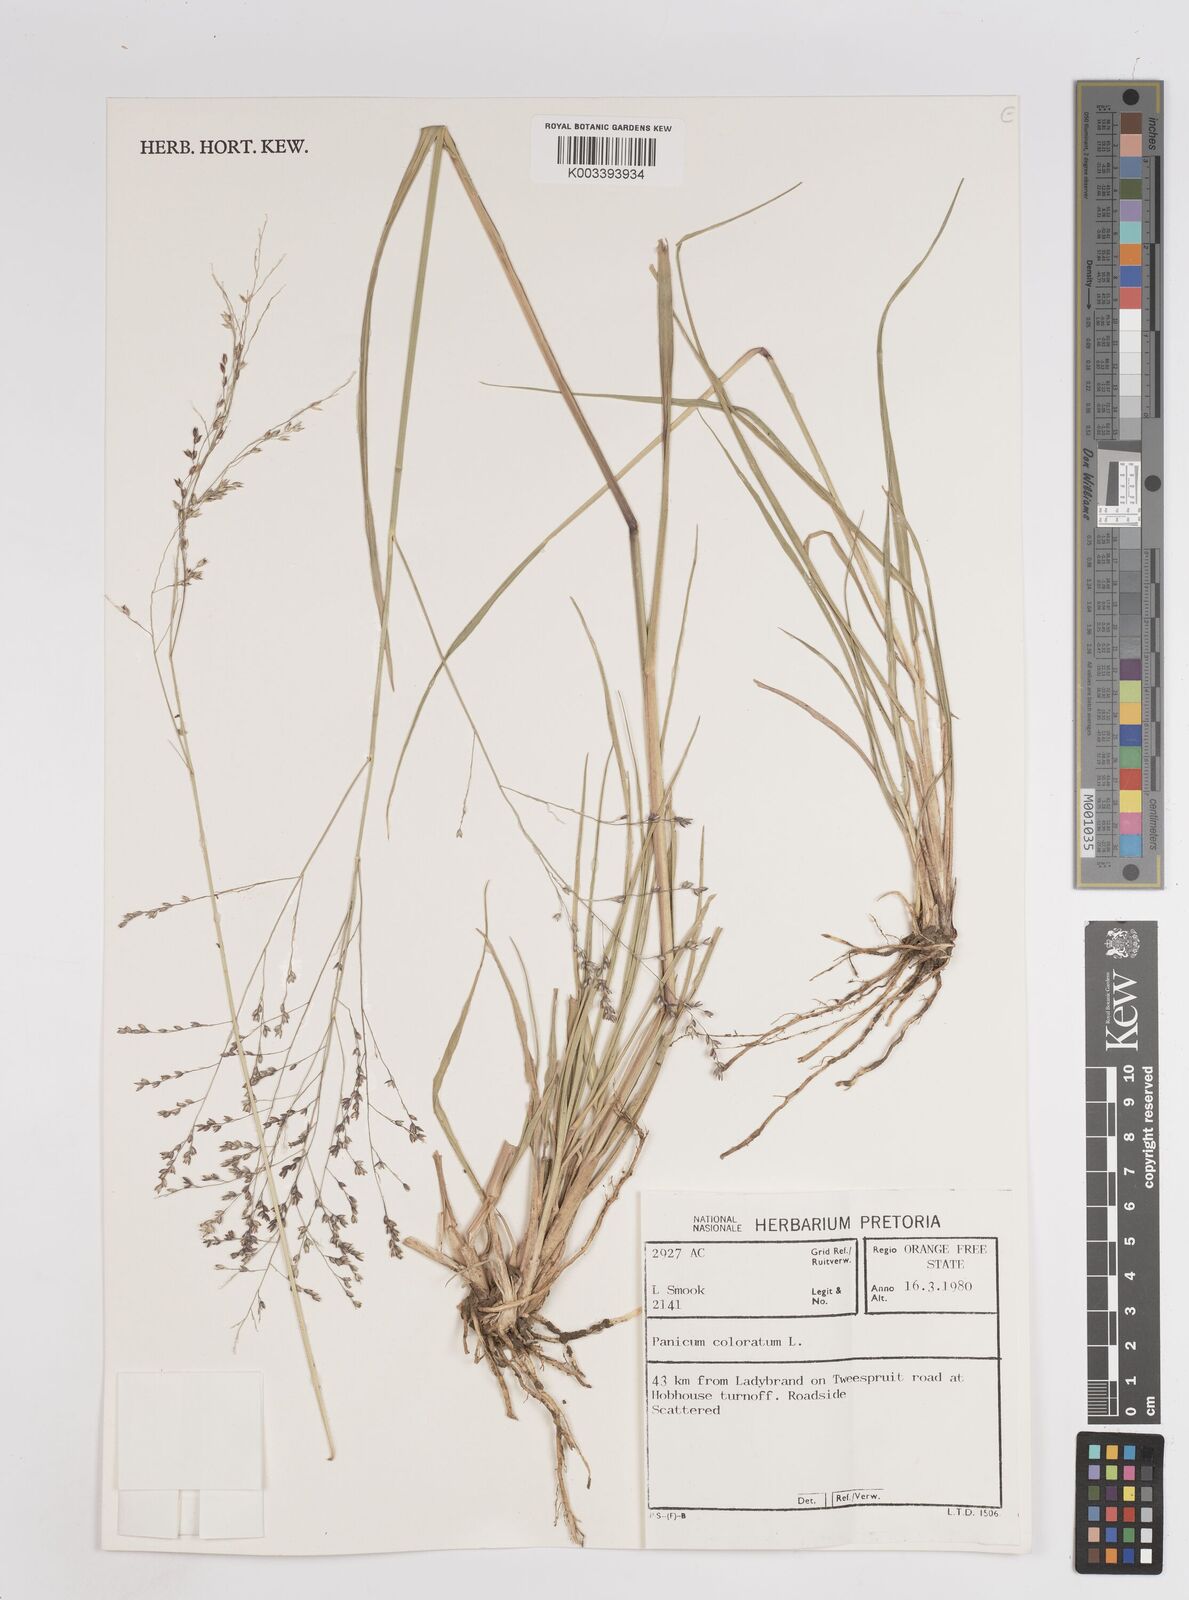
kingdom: Plantae
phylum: Tracheophyta
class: Liliopsida
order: Poales
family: Poaceae
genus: Panicum
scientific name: Panicum coloratum
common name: Kleingrass
